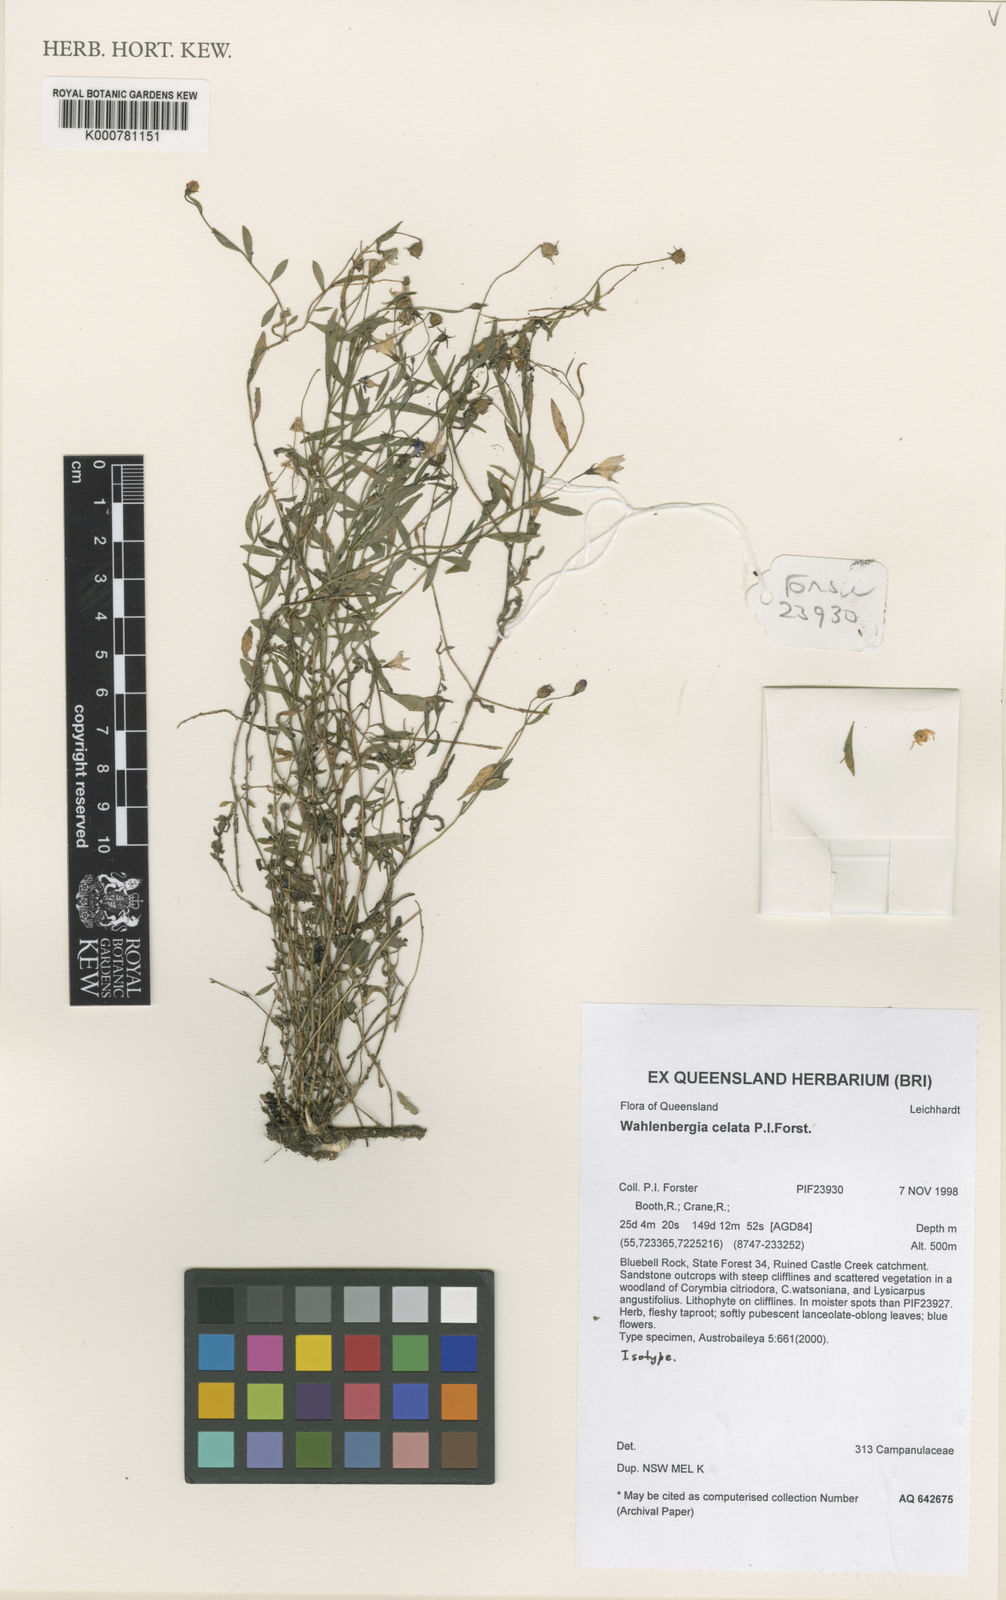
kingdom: Plantae
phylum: Tracheophyta
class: Magnoliopsida
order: Asterales
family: Campanulaceae
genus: Wahlenbergia
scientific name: Wahlenbergia celata
